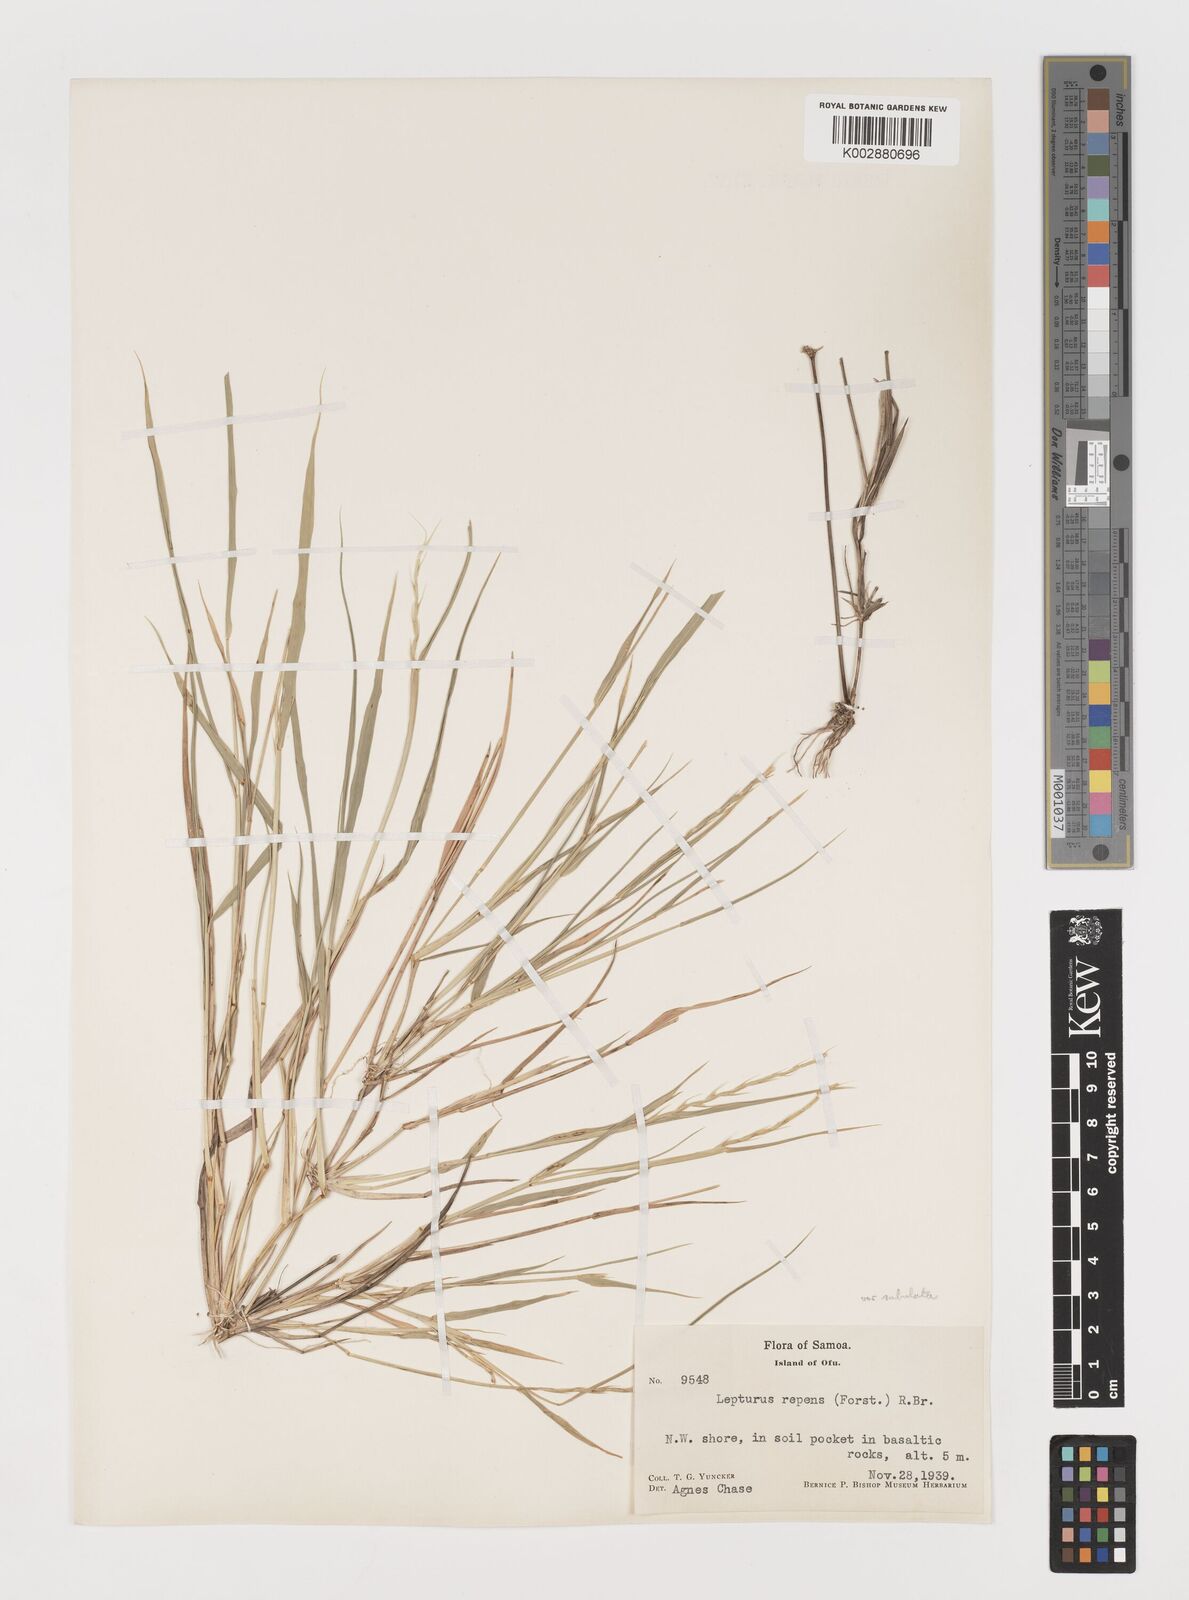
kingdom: Plantae
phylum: Tracheophyta
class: Liliopsida
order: Poales
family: Poaceae
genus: Lepturus
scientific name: Lepturus repens
